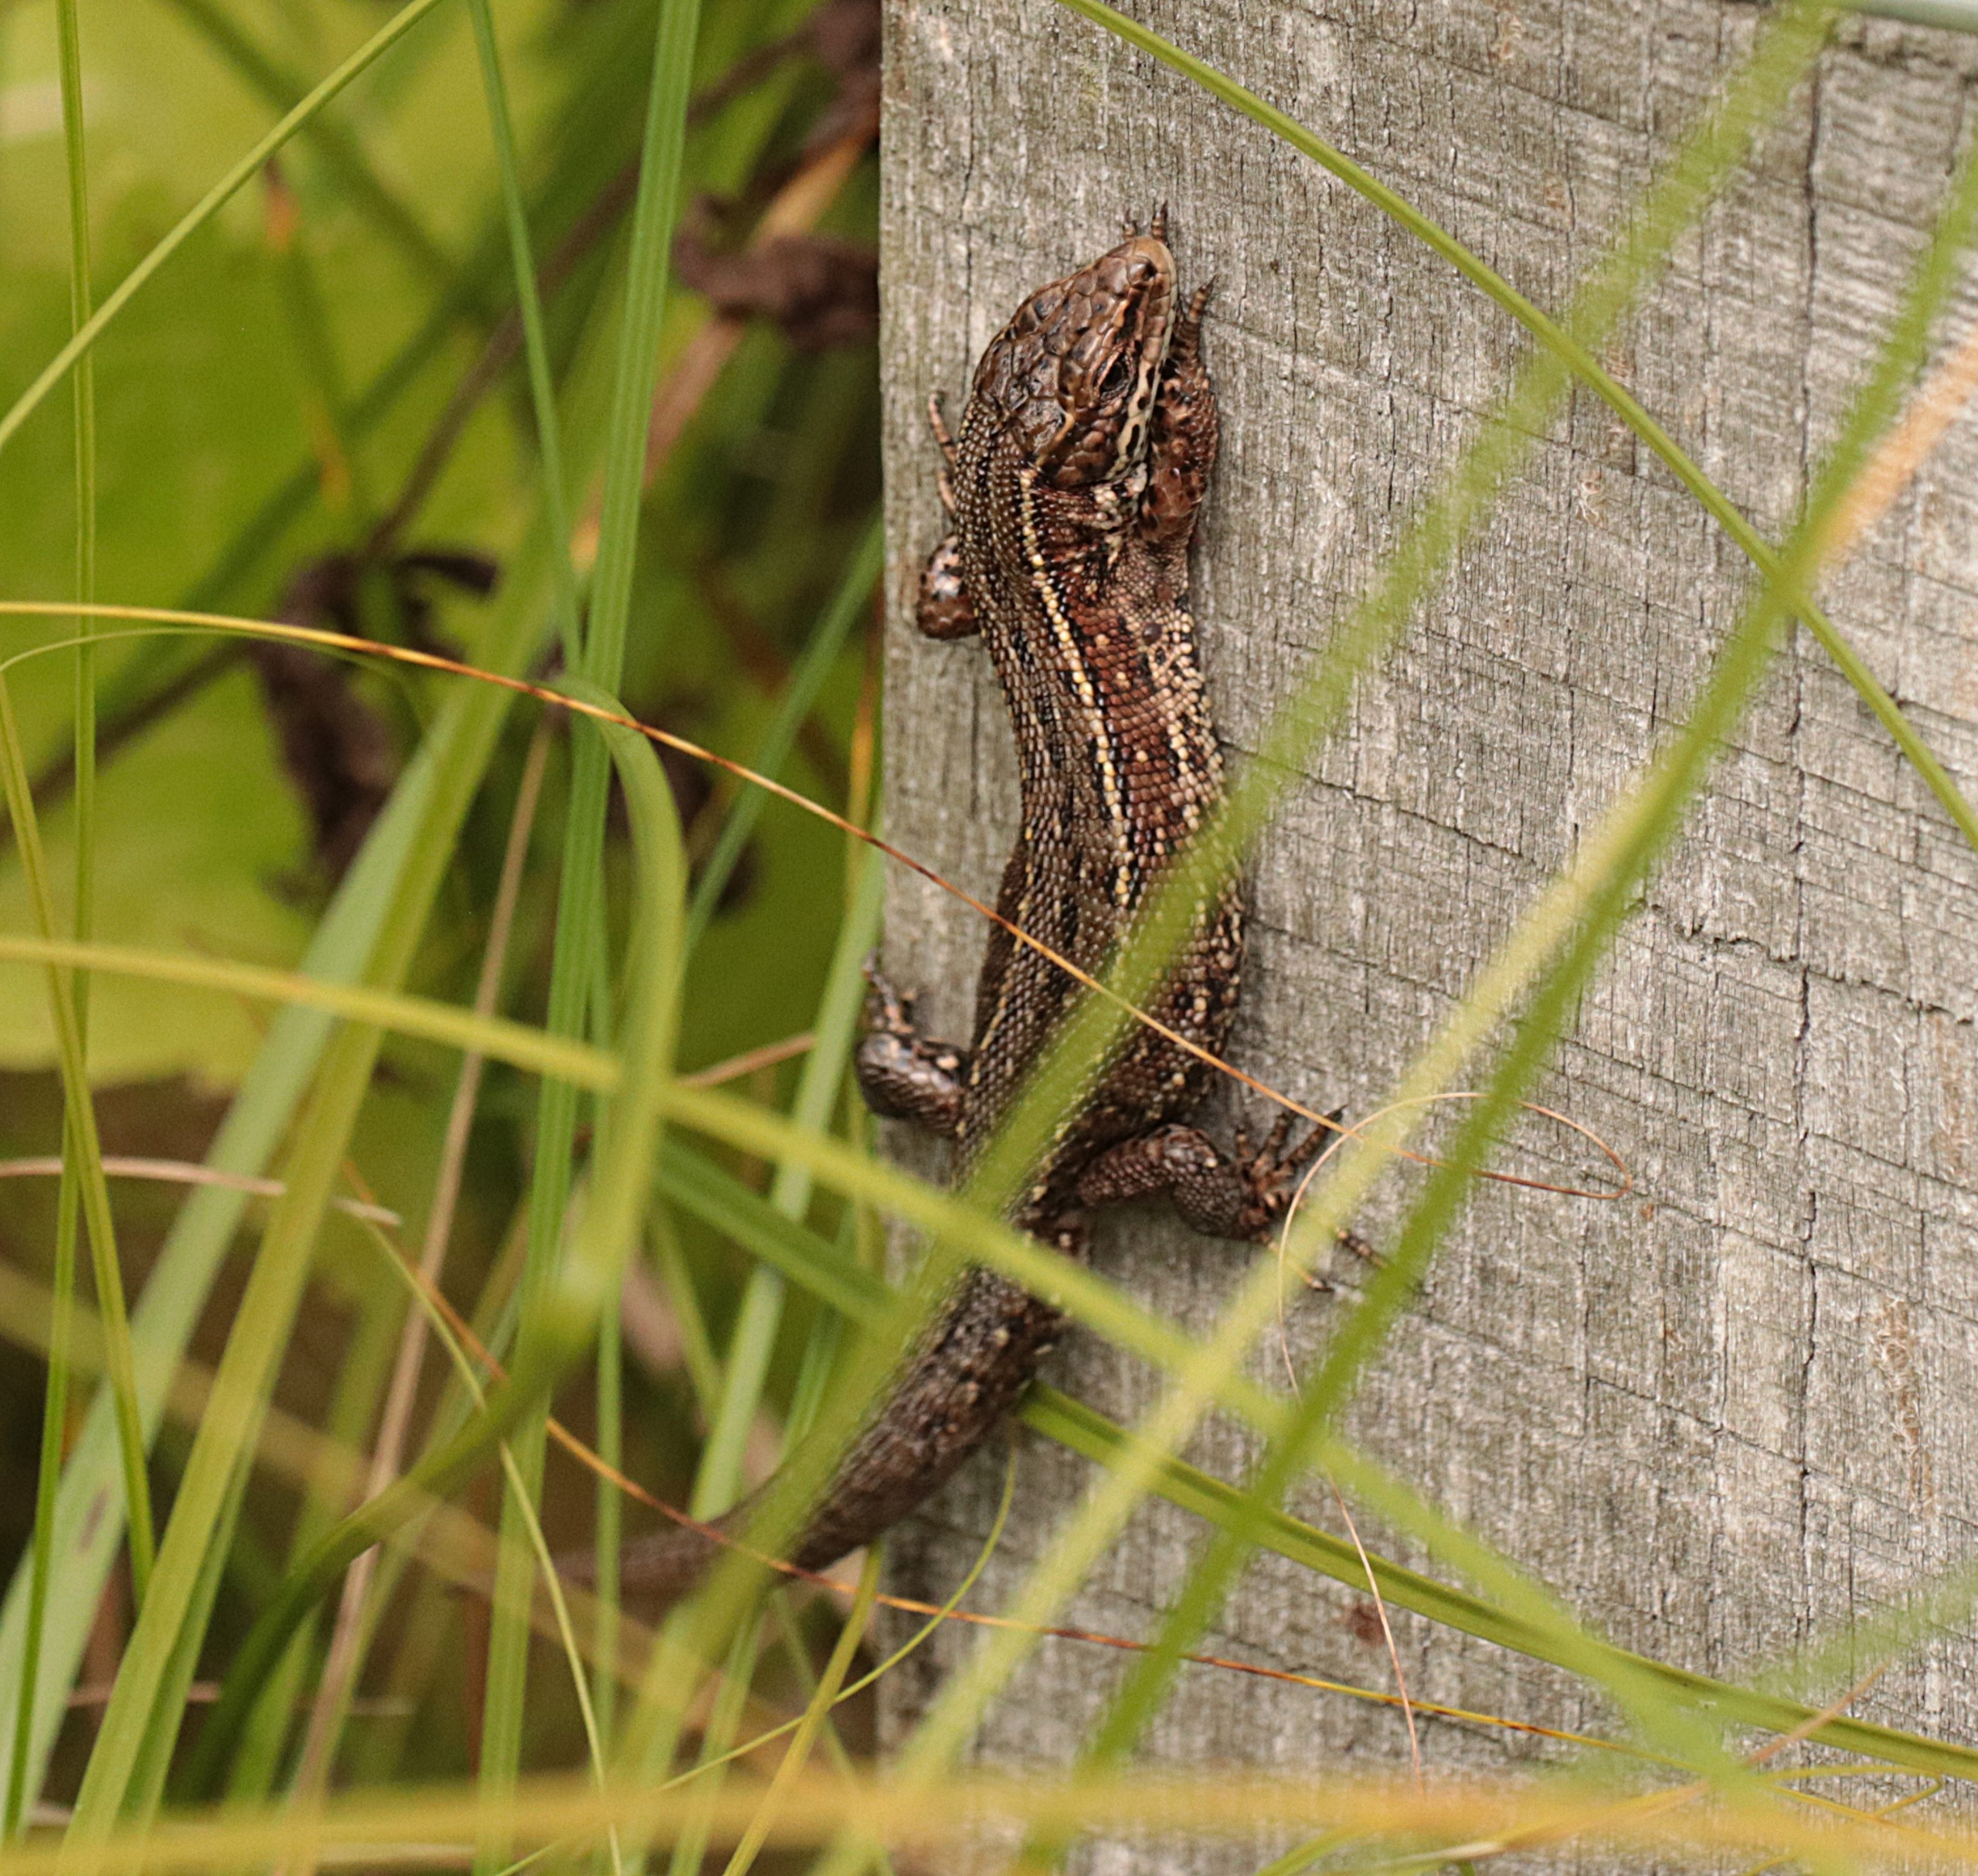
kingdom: Animalia
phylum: Chordata
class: Squamata
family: Lacertidae
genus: Zootoca
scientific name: Zootoca vivipara
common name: Skovfirben
